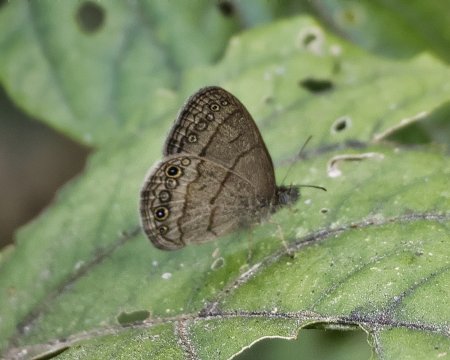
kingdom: Animalia
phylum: Arthropoda
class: Insecta
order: Lepidoptera
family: Nymphalidae
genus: Hermeuptychia
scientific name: Hermeuptychia intricata
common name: Intricate Satyr
